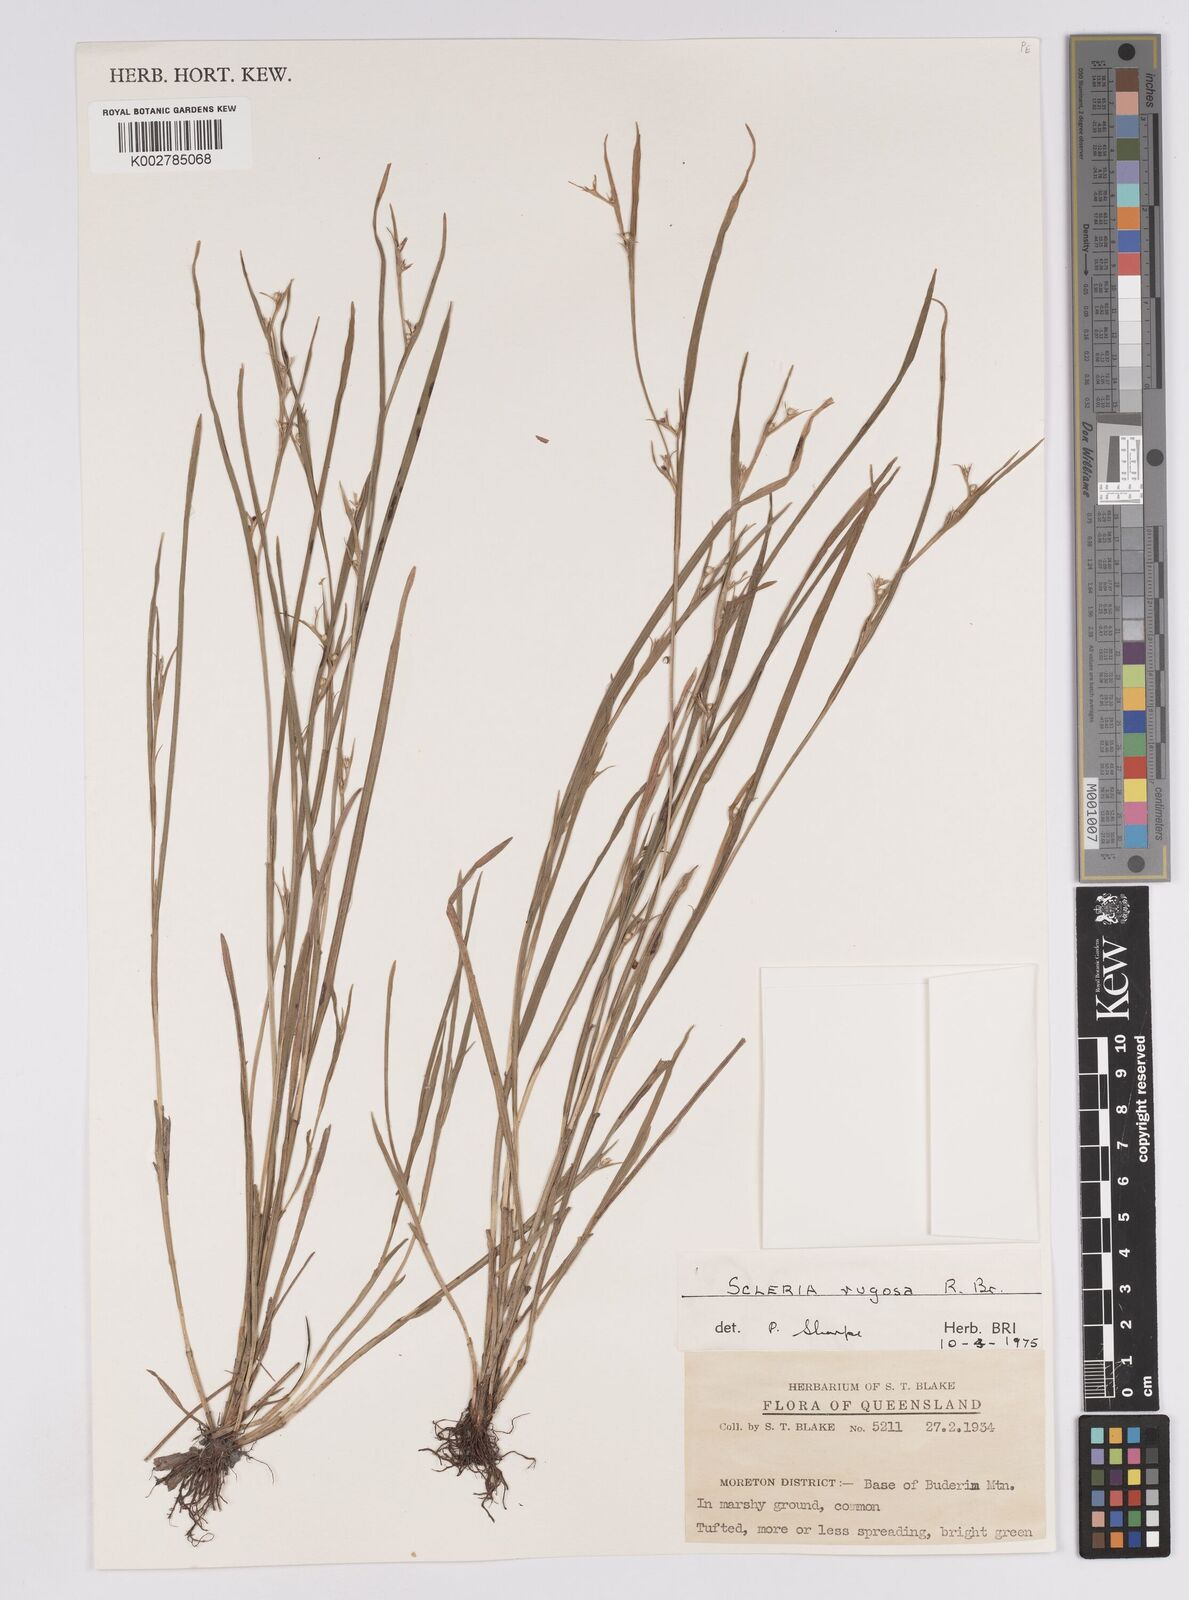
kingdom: Plantae
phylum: Tracheophyta
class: Liliopsida
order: Poales
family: Cyperaceae
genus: Scleria
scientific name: Scleria rugosa
